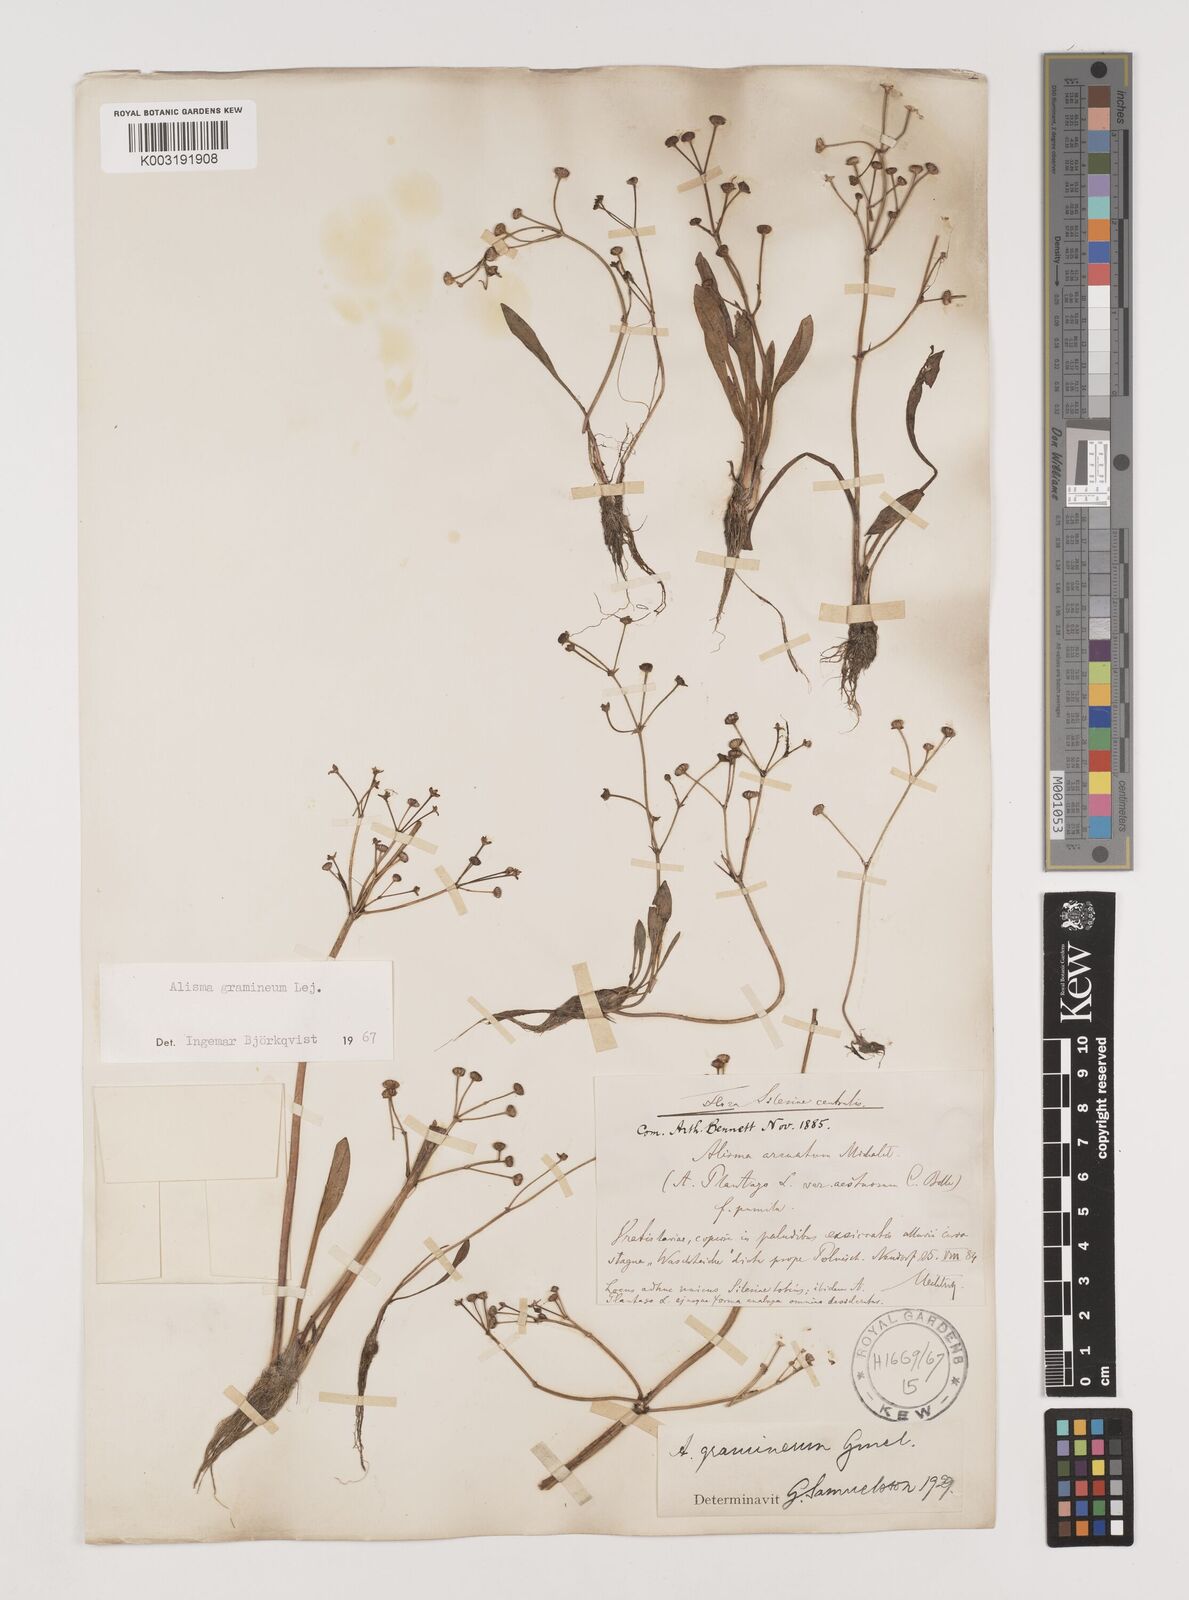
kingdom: Plantae
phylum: Tracheophyta
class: Liliopsida
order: Alismatales
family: Alismataceae
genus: Alisma
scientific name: Alisma gramineum
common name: Ribbon-leaved water-plantain
